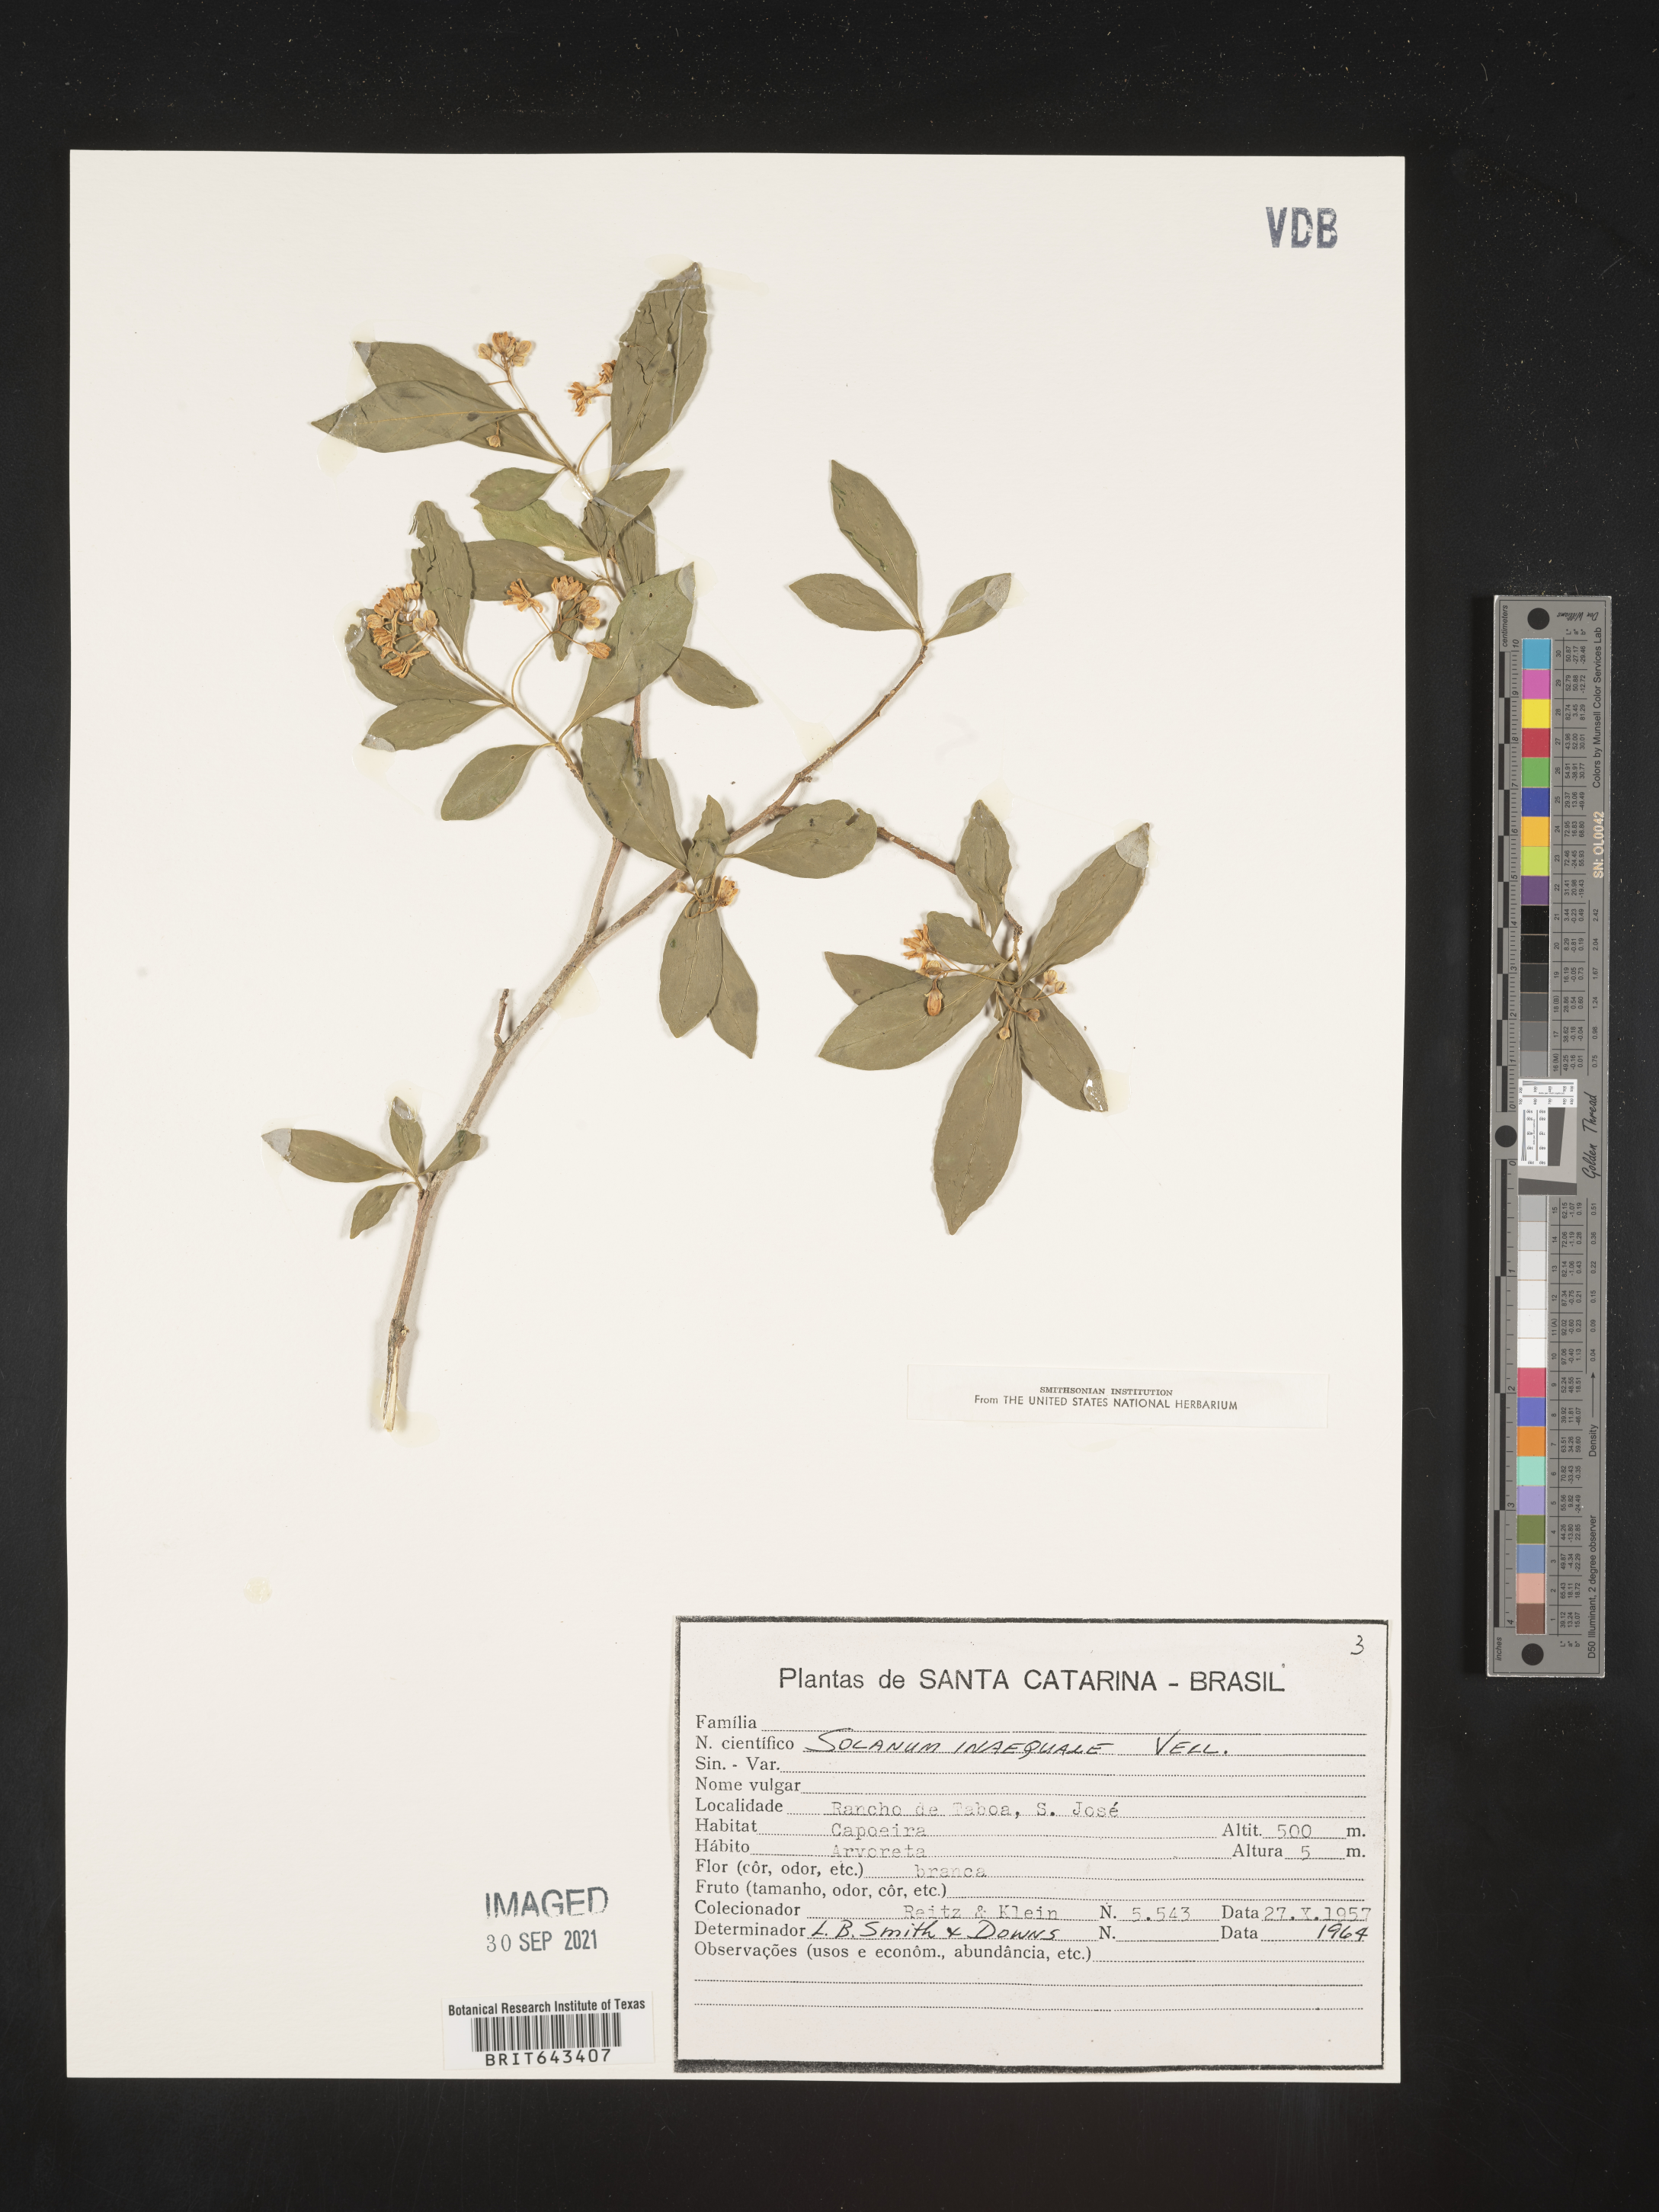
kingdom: Plantae
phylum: Tracheophyta
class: Magnoliopsida
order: Solanales
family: Solanaceae
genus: Solanum
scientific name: Solanum
